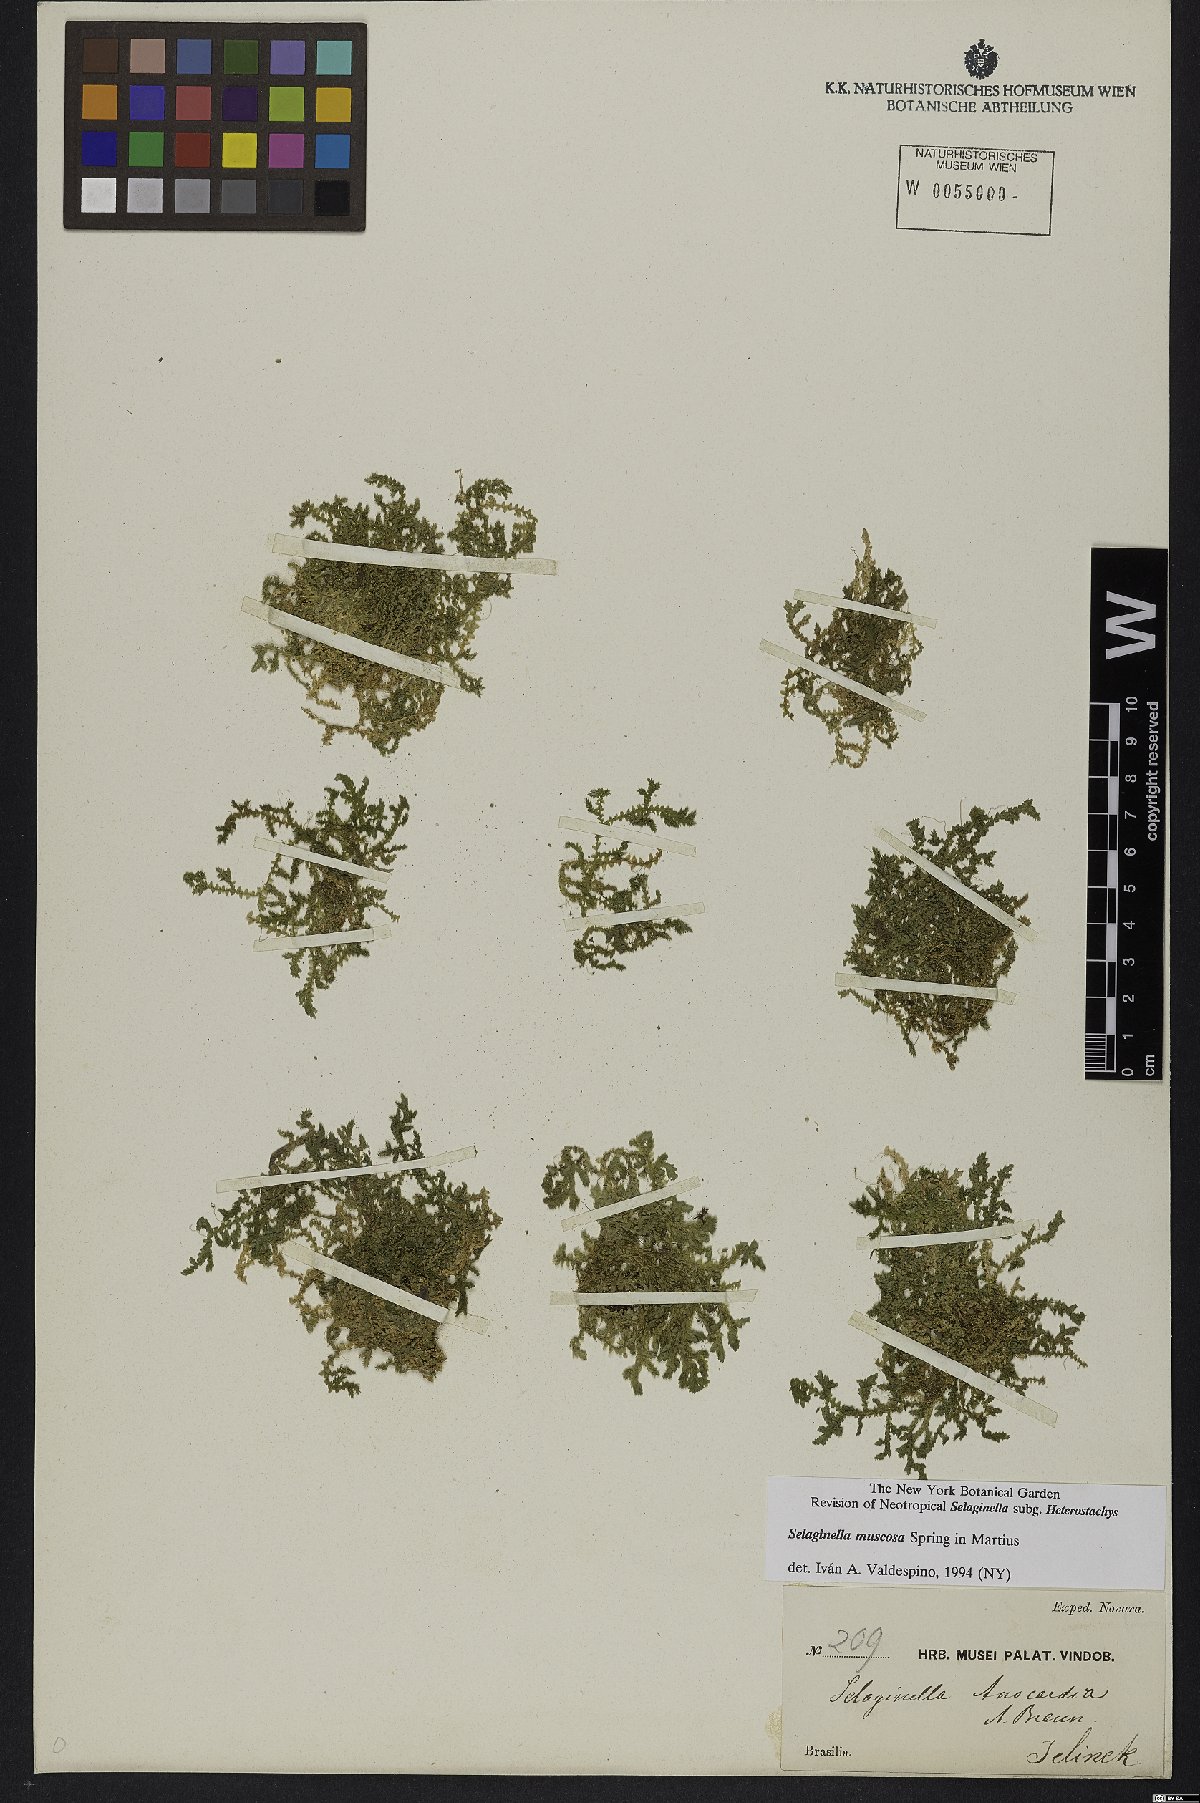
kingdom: Plantae
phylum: Tracheophyta
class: Lycopodiopsida
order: Selaginellales
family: Selaginellaceae
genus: Selaginella
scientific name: Selaginella muscosa
